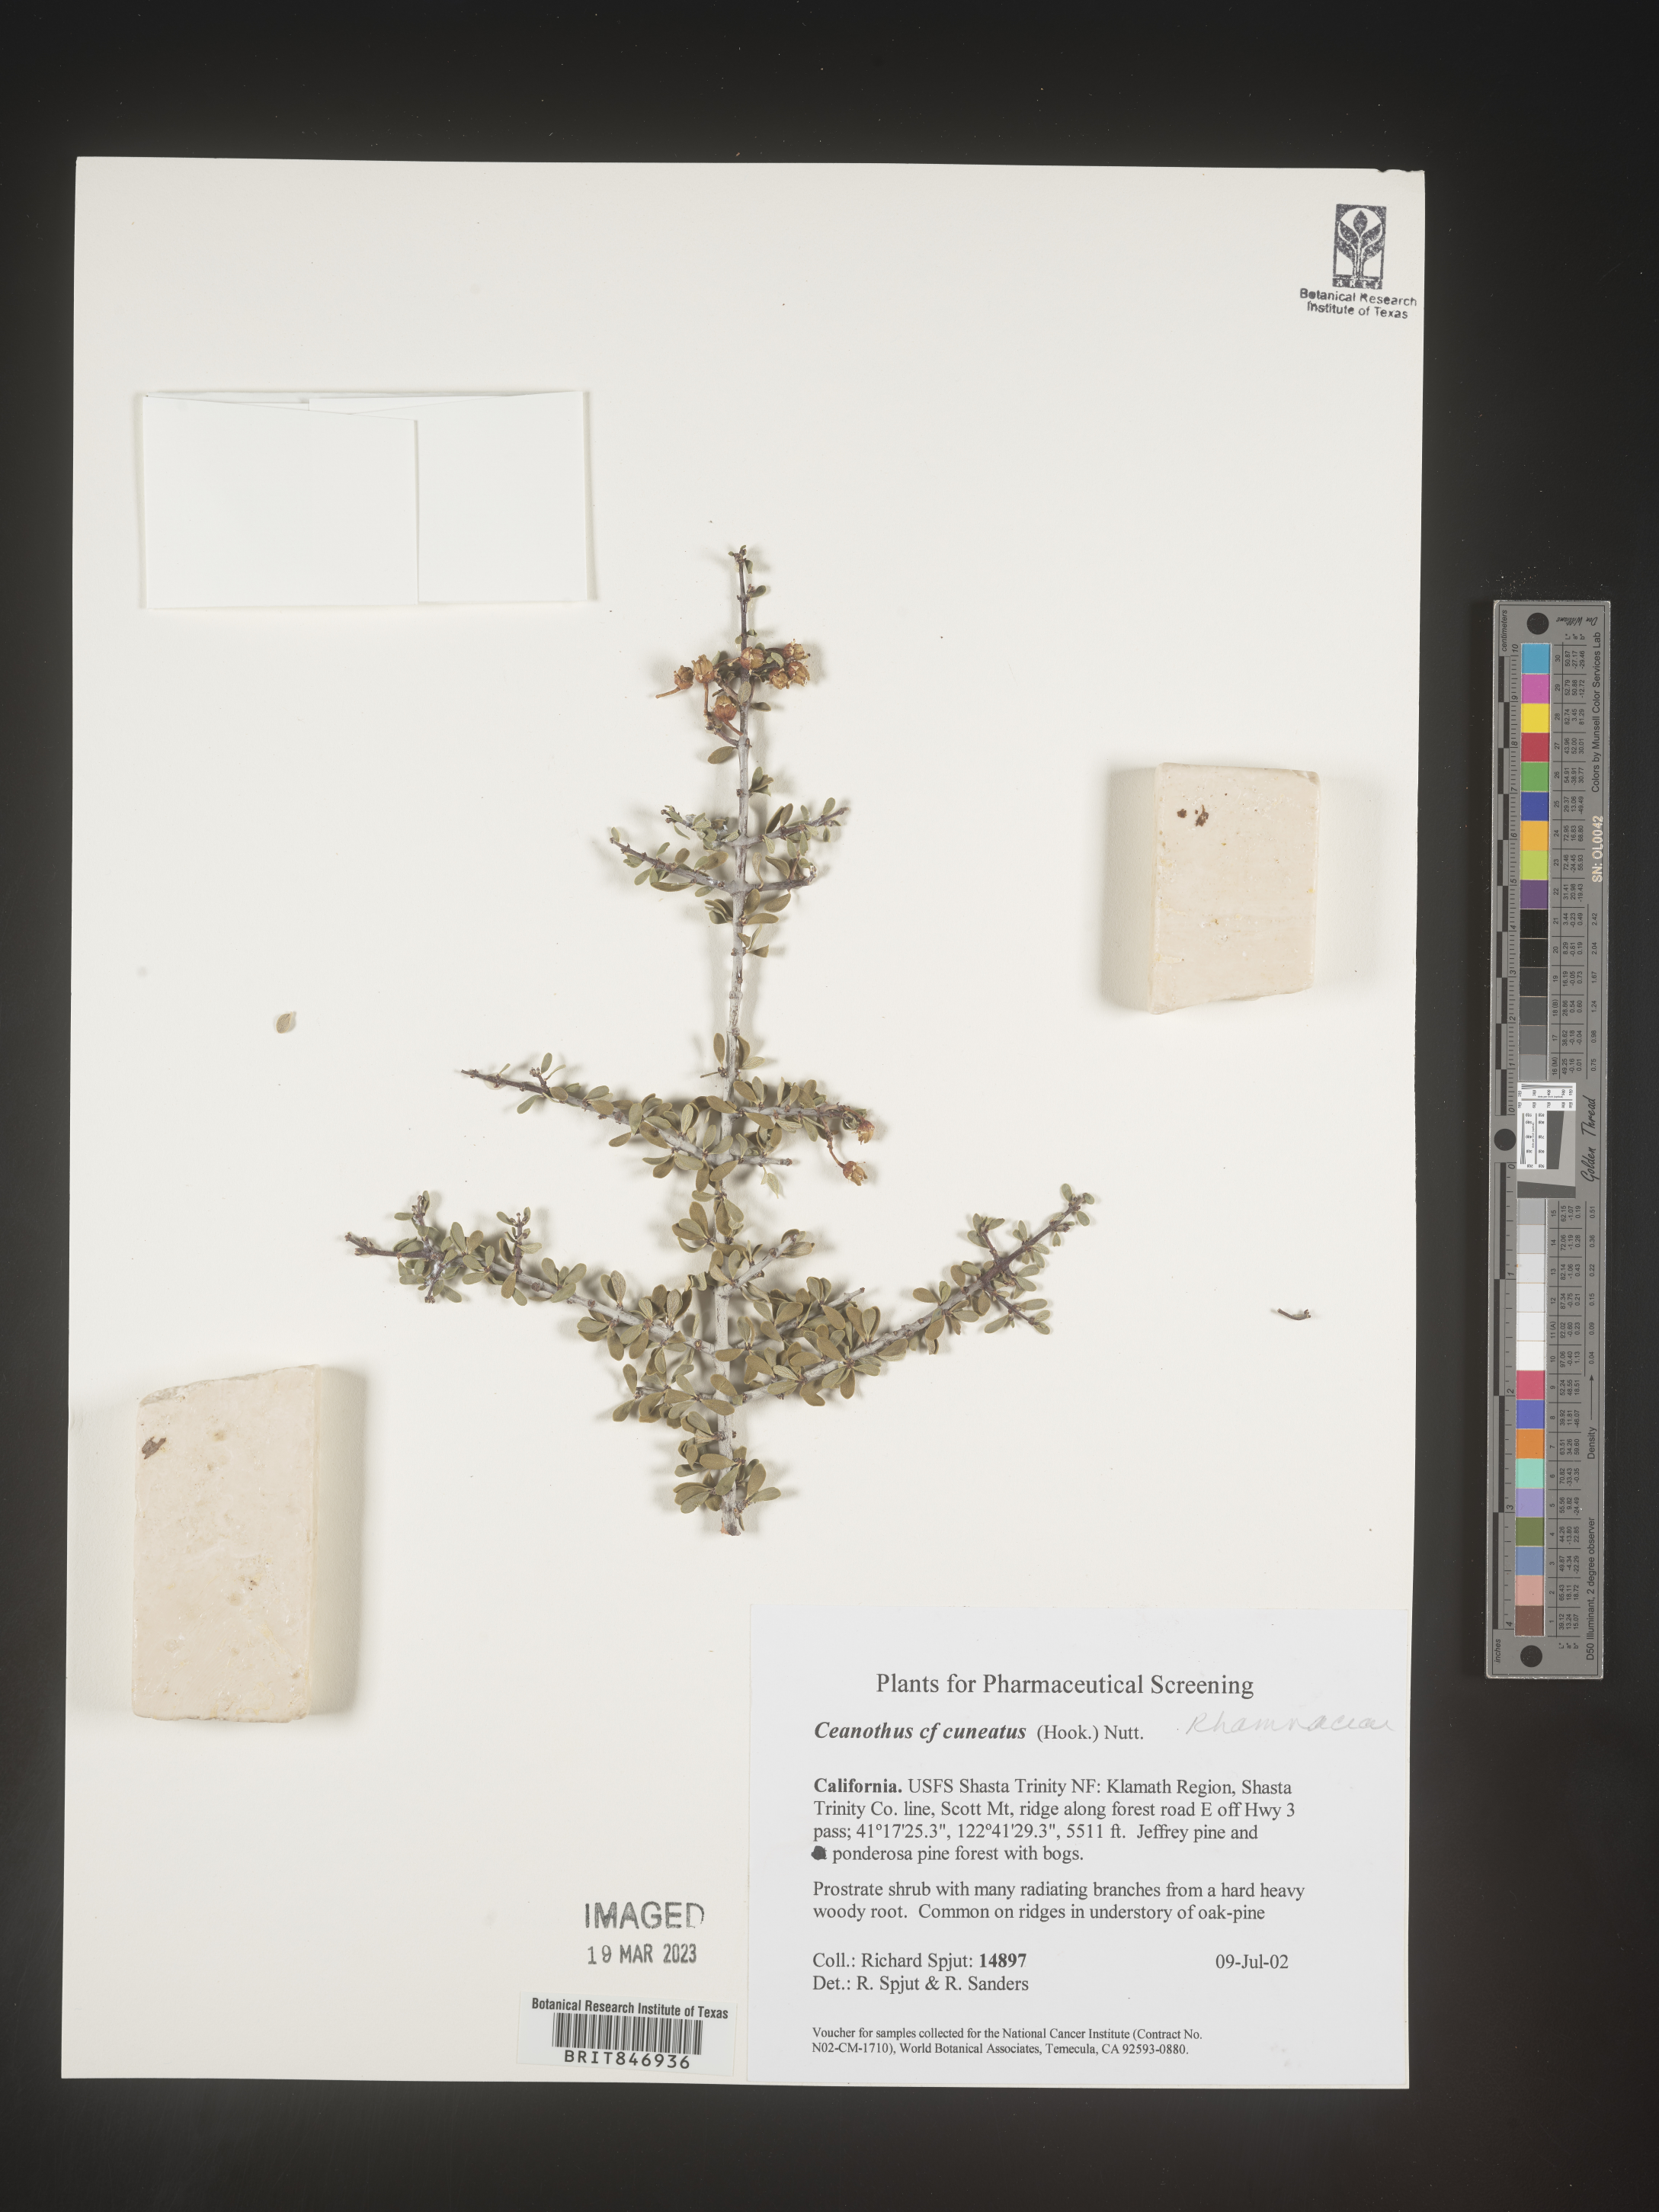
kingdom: Plantae
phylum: Tracheophyta
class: Magnoliopsida
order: Rosales
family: Rhamnaceae
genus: Ceanothus
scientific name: Ceanothus cuneatus
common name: Cuneate ceanothus
